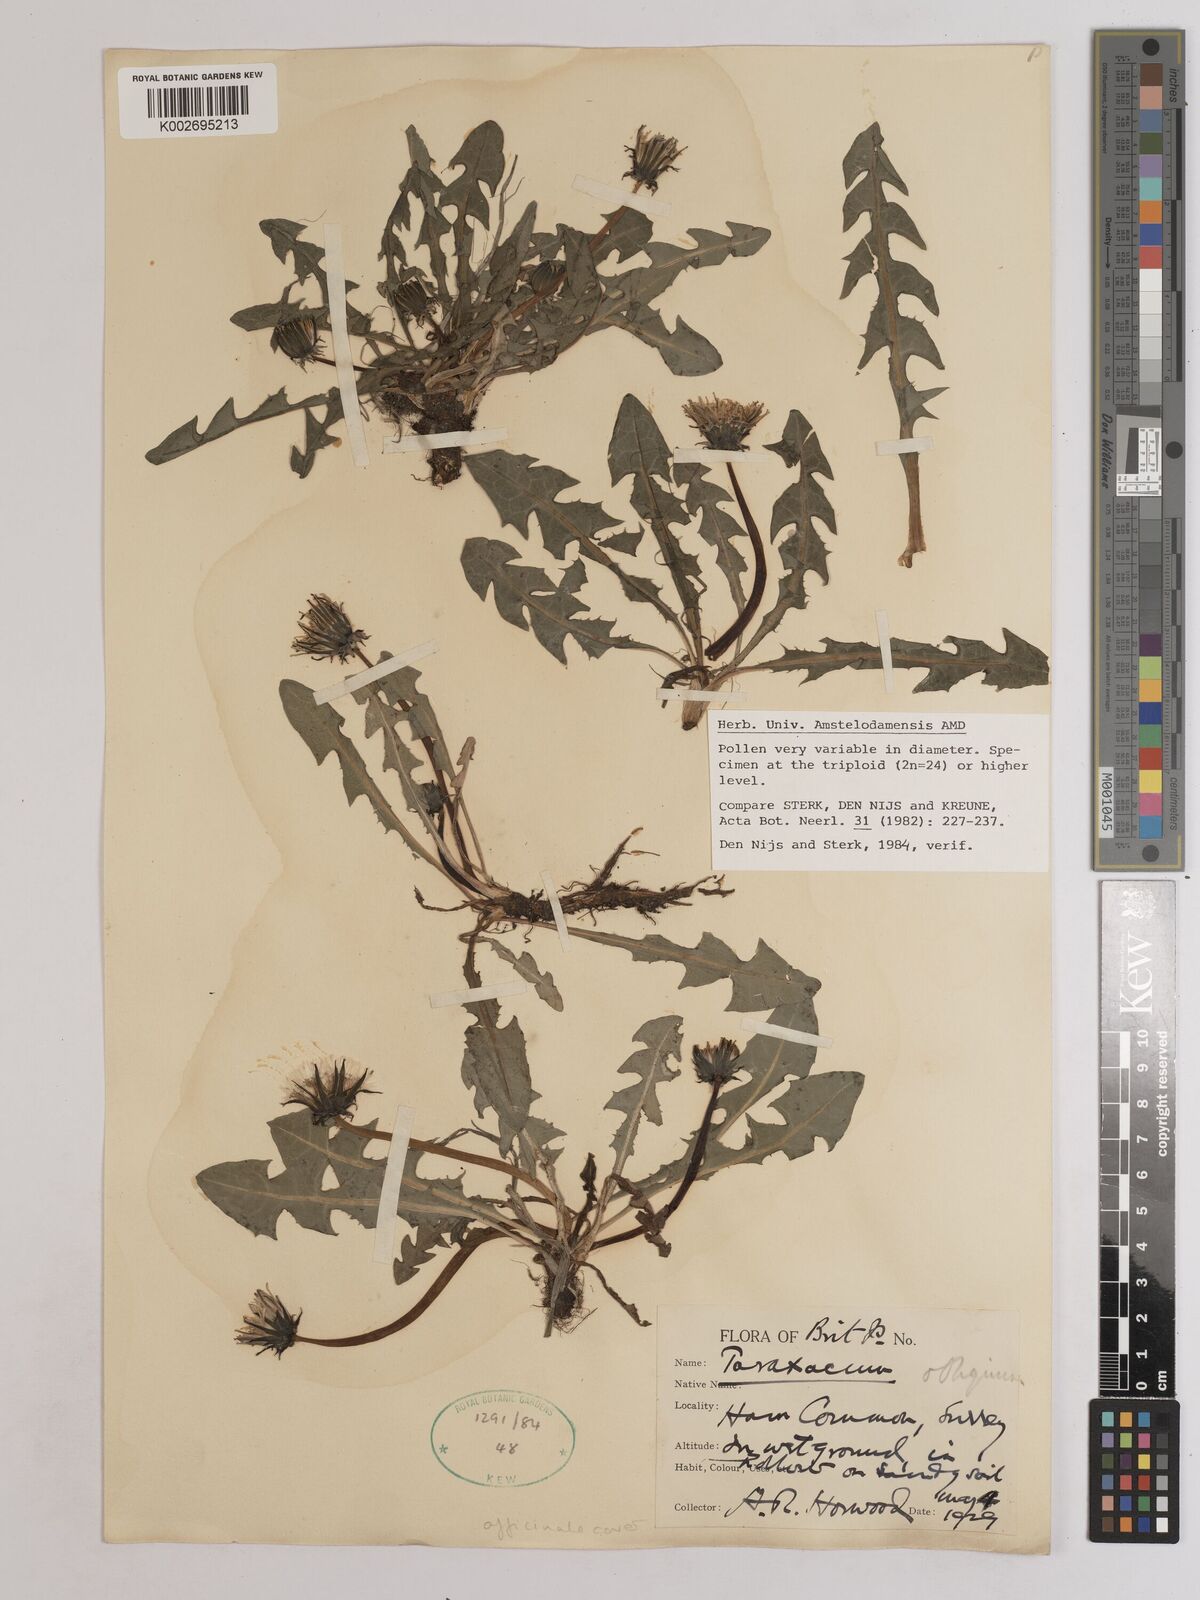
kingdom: Plantae
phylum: Tracheophyta
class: Magnoliopsida
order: Asterales
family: Asteraceae
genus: Taraxacum
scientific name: Taraxacum officinale
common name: Common dandelion
